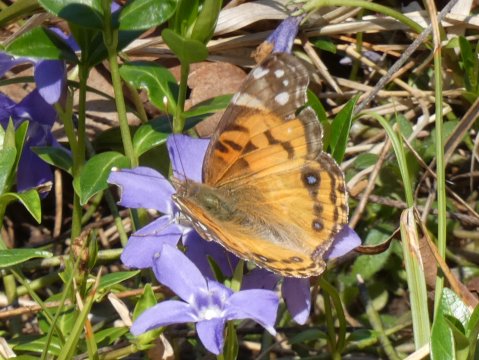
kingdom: Animalia
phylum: Arthropoda
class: Insecta
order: Lepidoptera
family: Nymphalidae
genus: Vanessa
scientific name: Vanessa virginiensis
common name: American Lady
